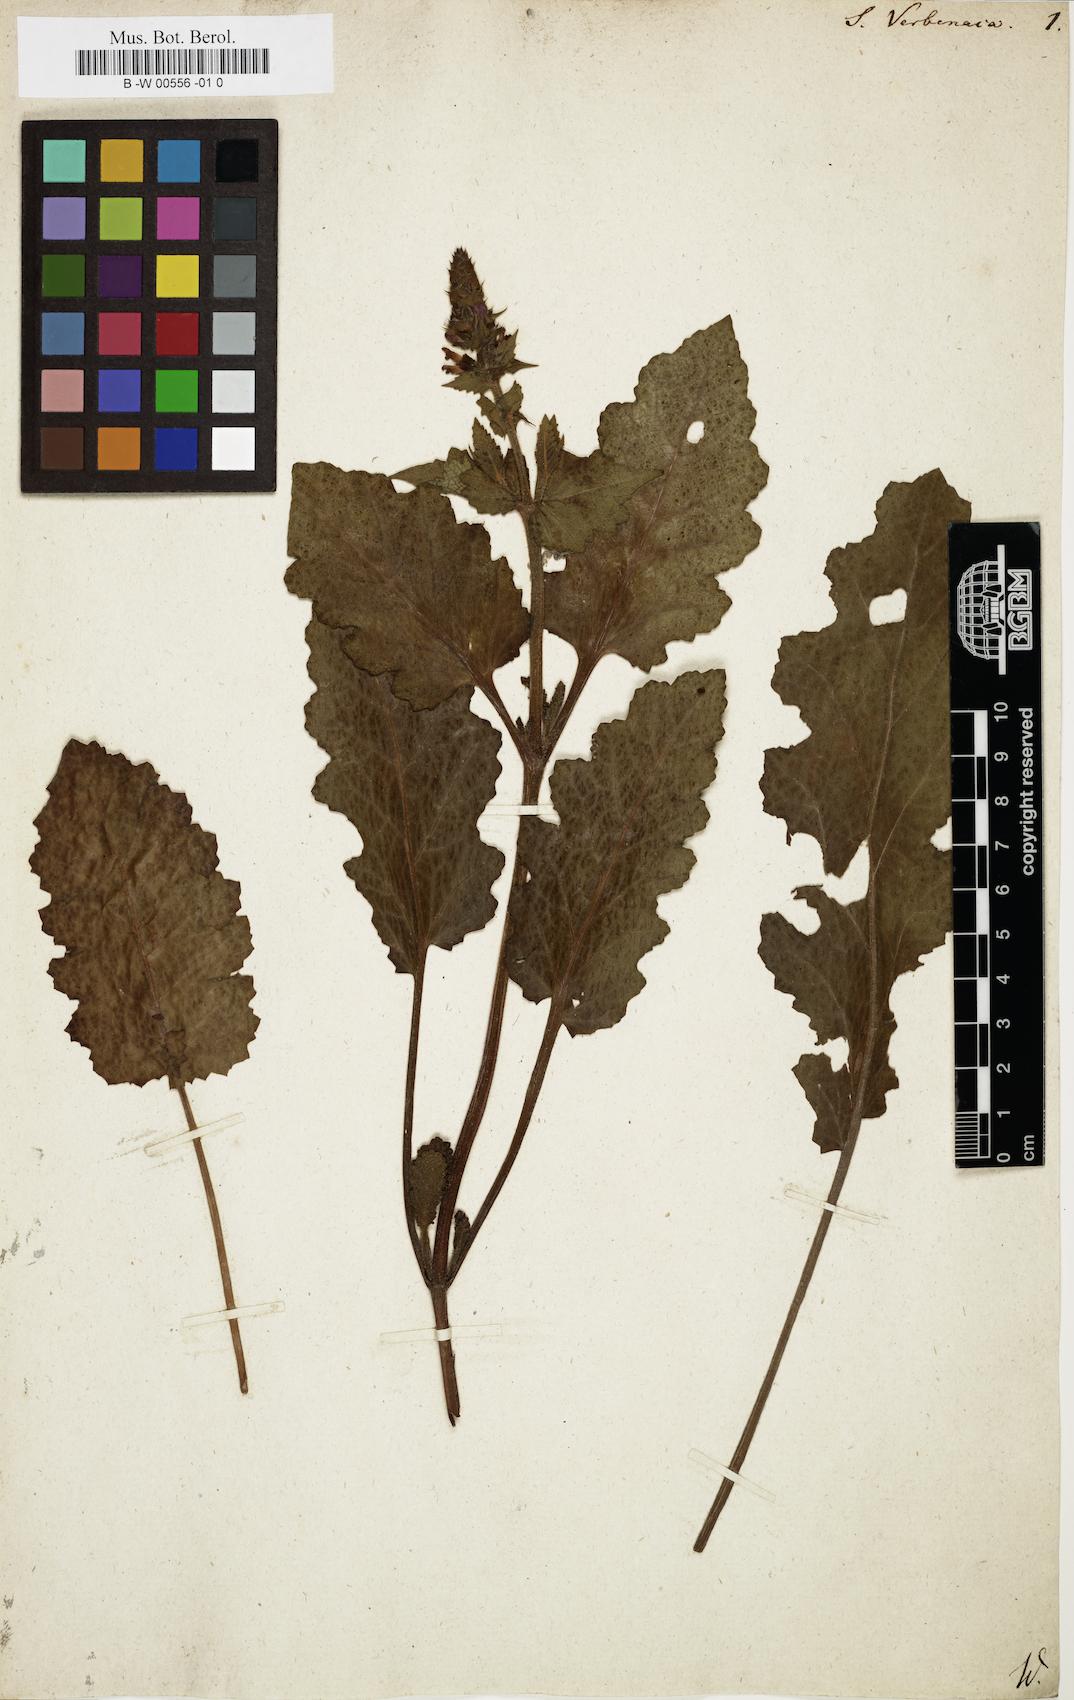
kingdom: Plantae
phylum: Tracheophyta
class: Magnoliopsida
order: Lamiales
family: Lamiaceae
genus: Salvia
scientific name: Salvia verbenaca
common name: Wild clary
